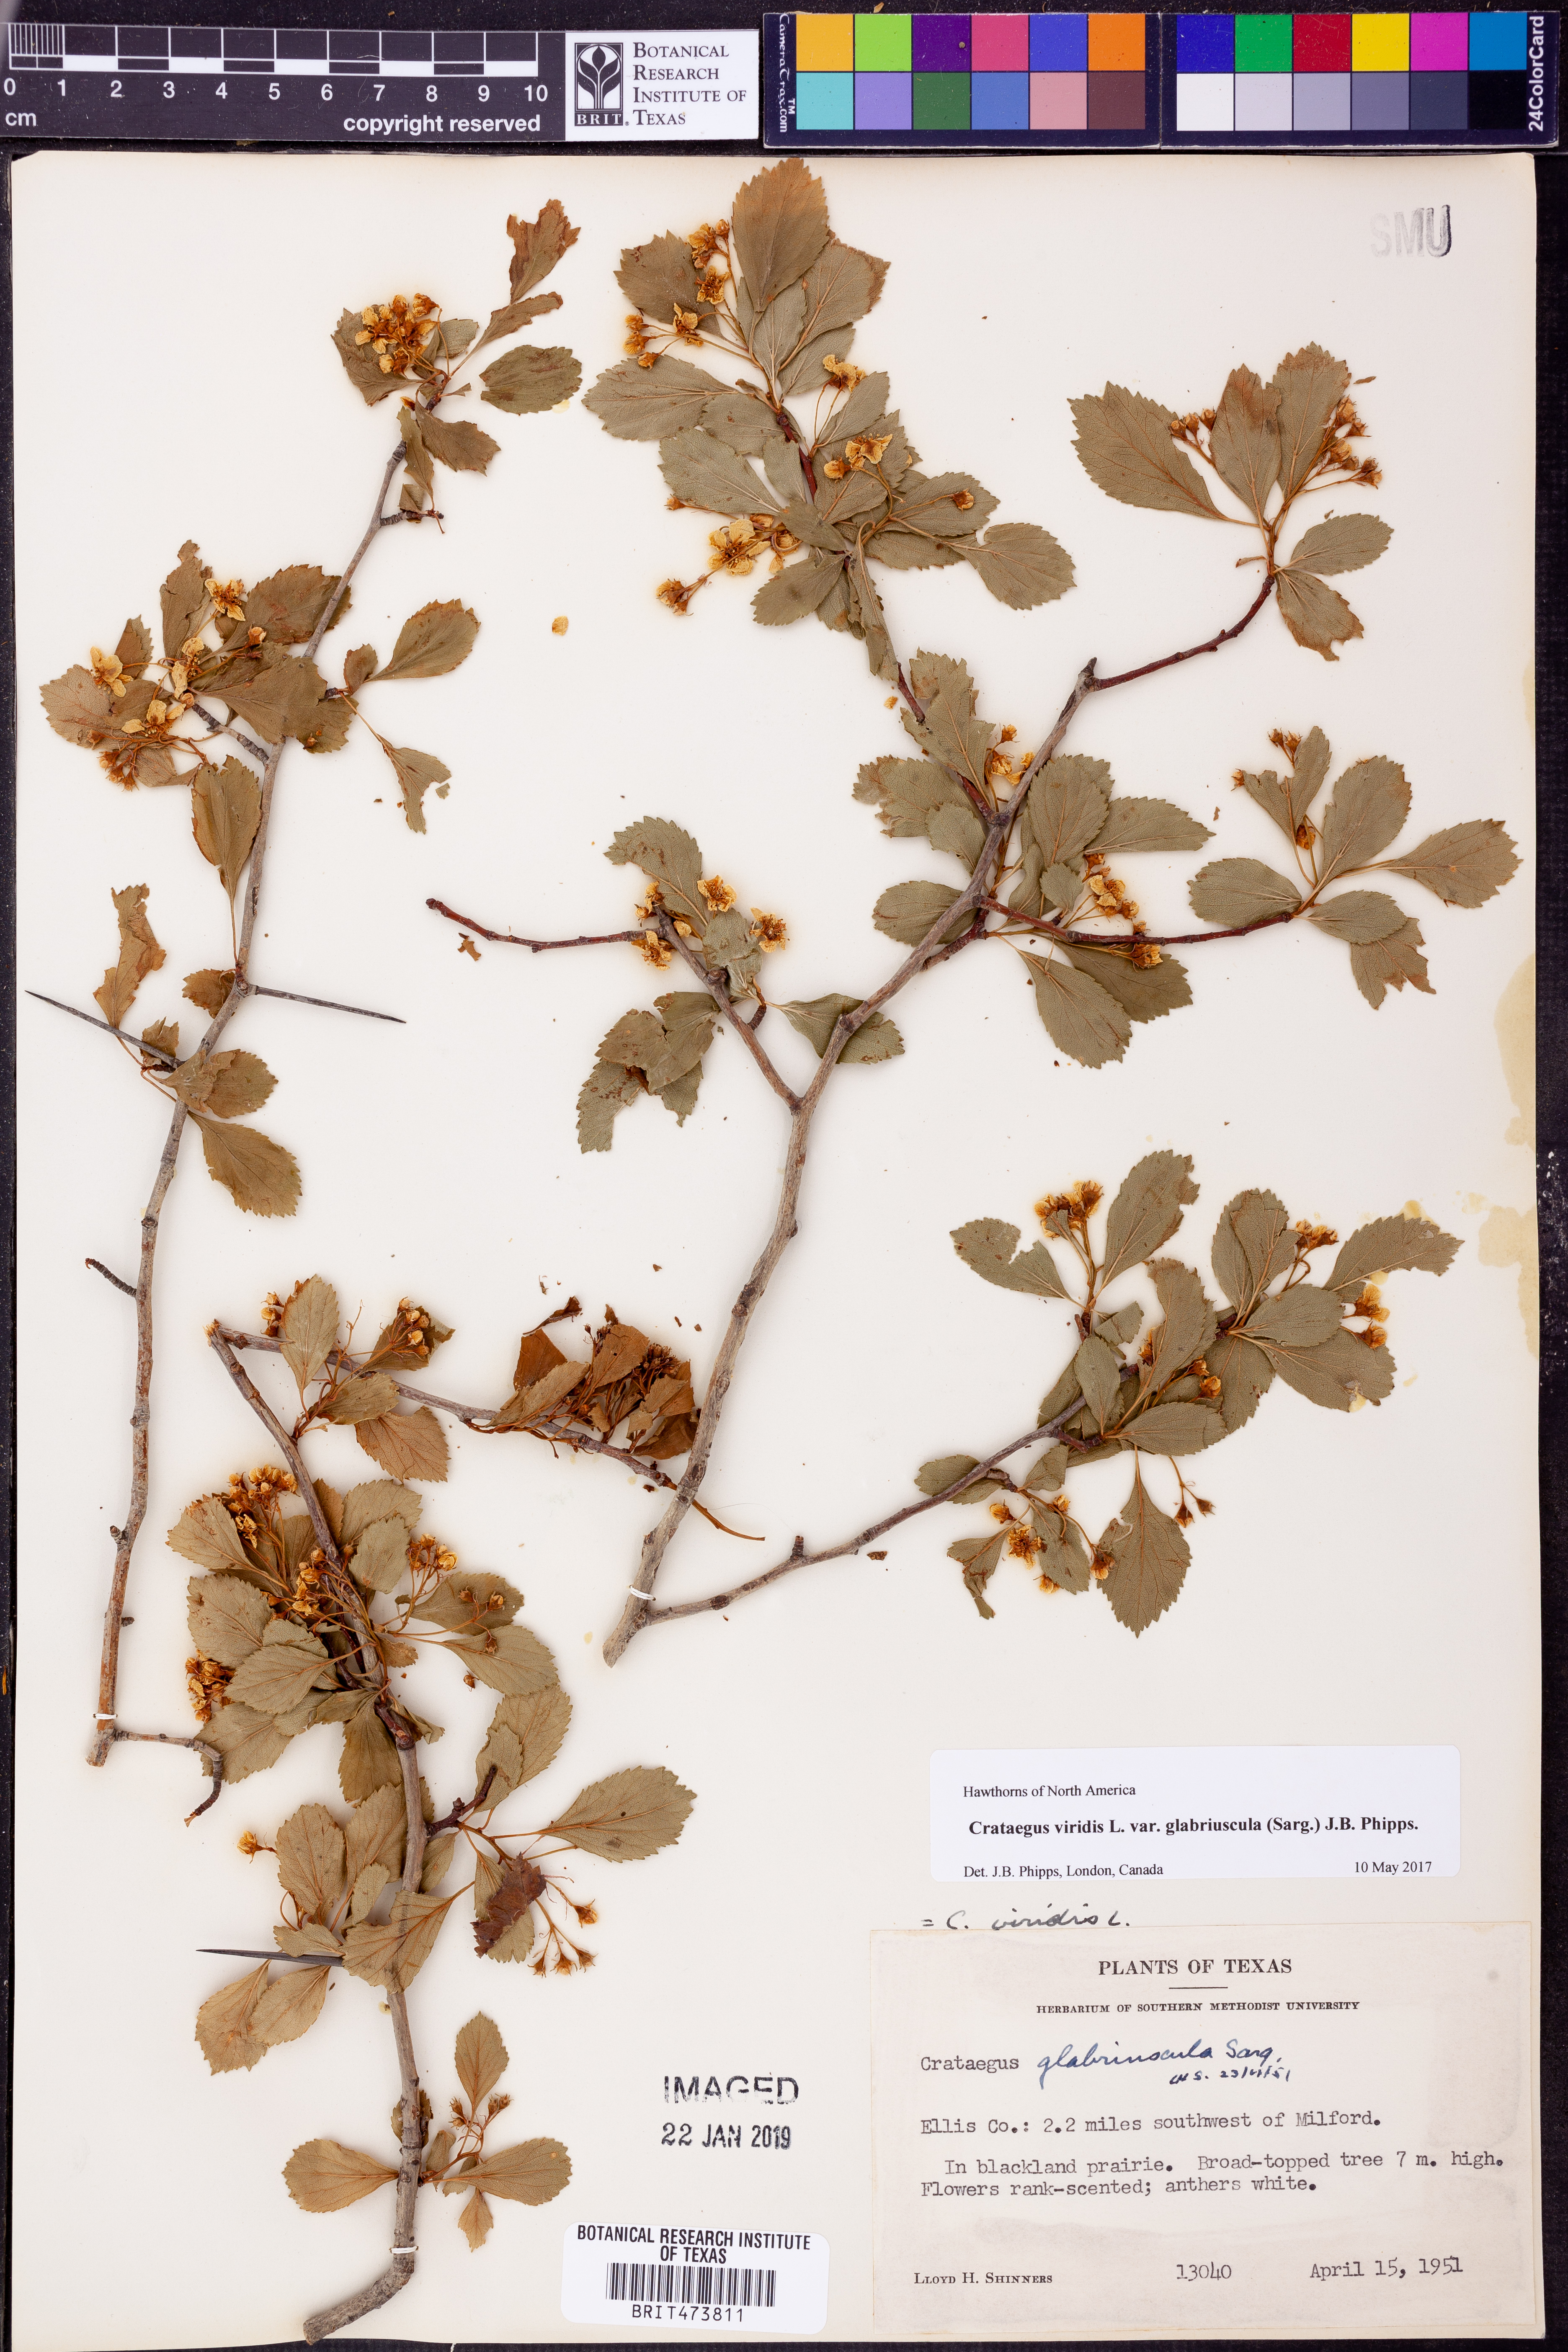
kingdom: Plantae
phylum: Tracheophyta
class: Magnoliopsida
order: Rosales
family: Rosaceae
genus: Crataegus
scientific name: Crataegus viridis
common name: Southernthorn
